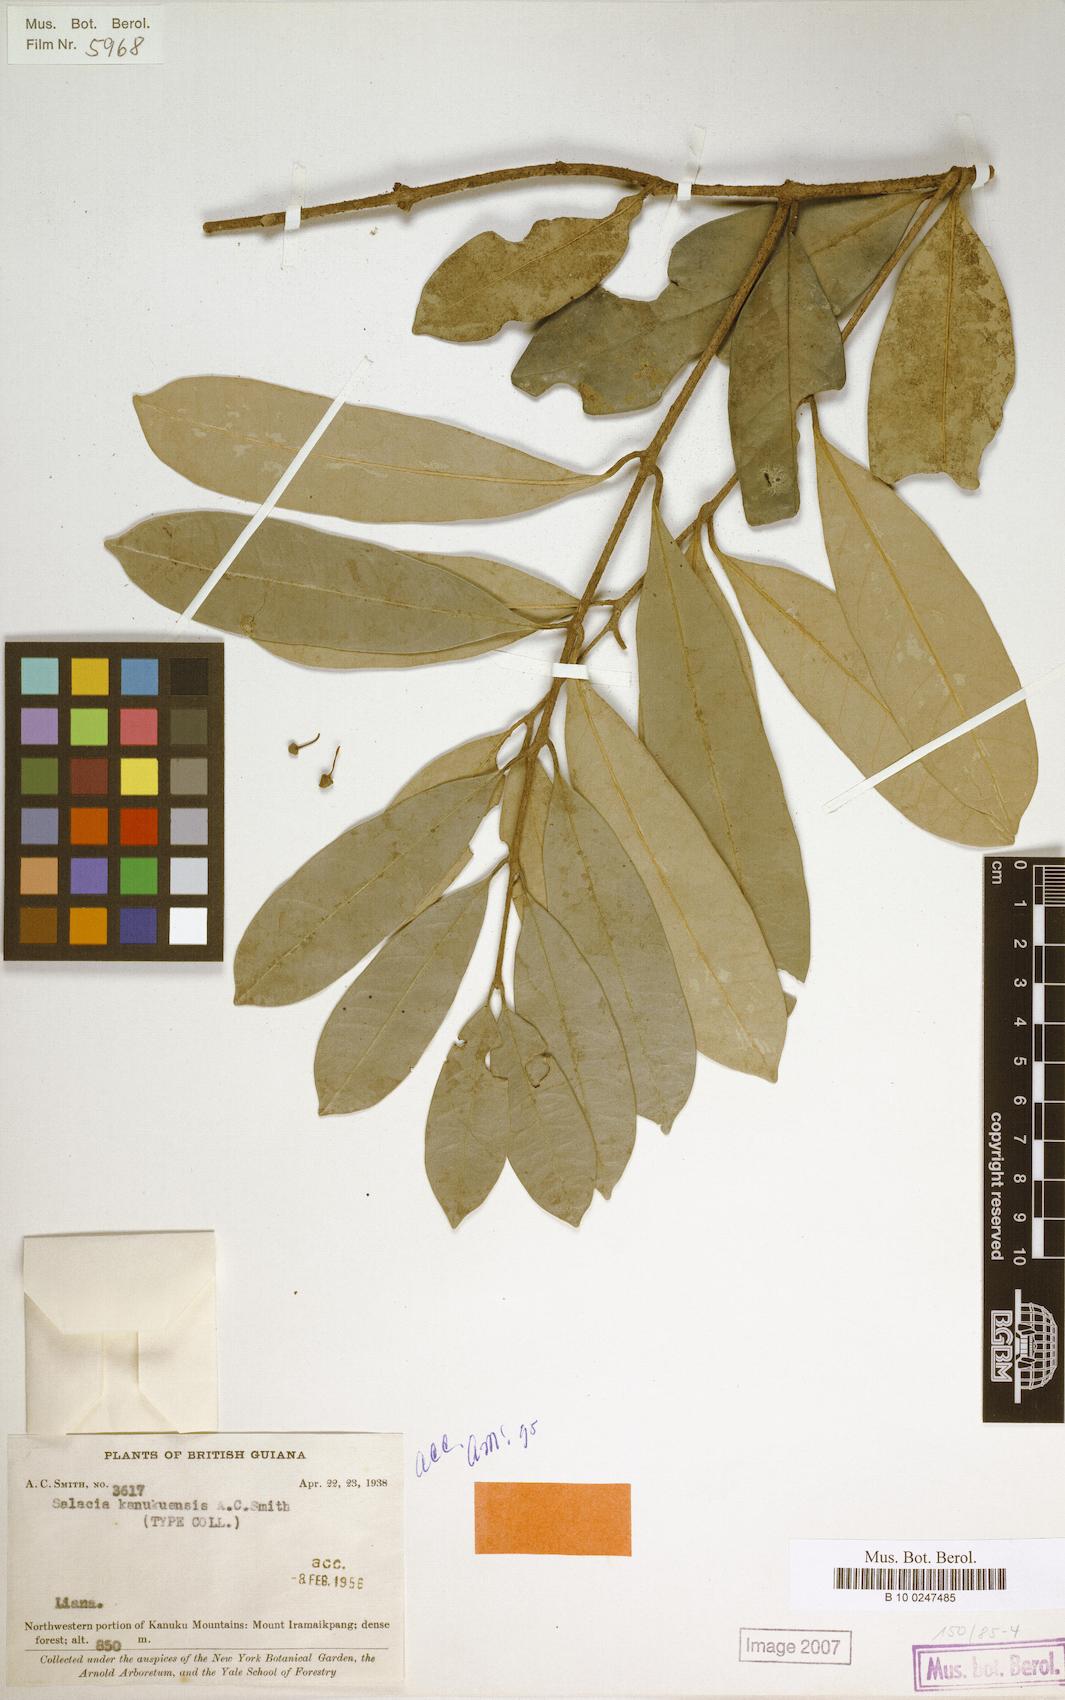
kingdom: Plantae
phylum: Tracheophyta
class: Magnoliopsida
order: Celastrales
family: Celastraceae
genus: Salacia
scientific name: Salacia kanukuensis
